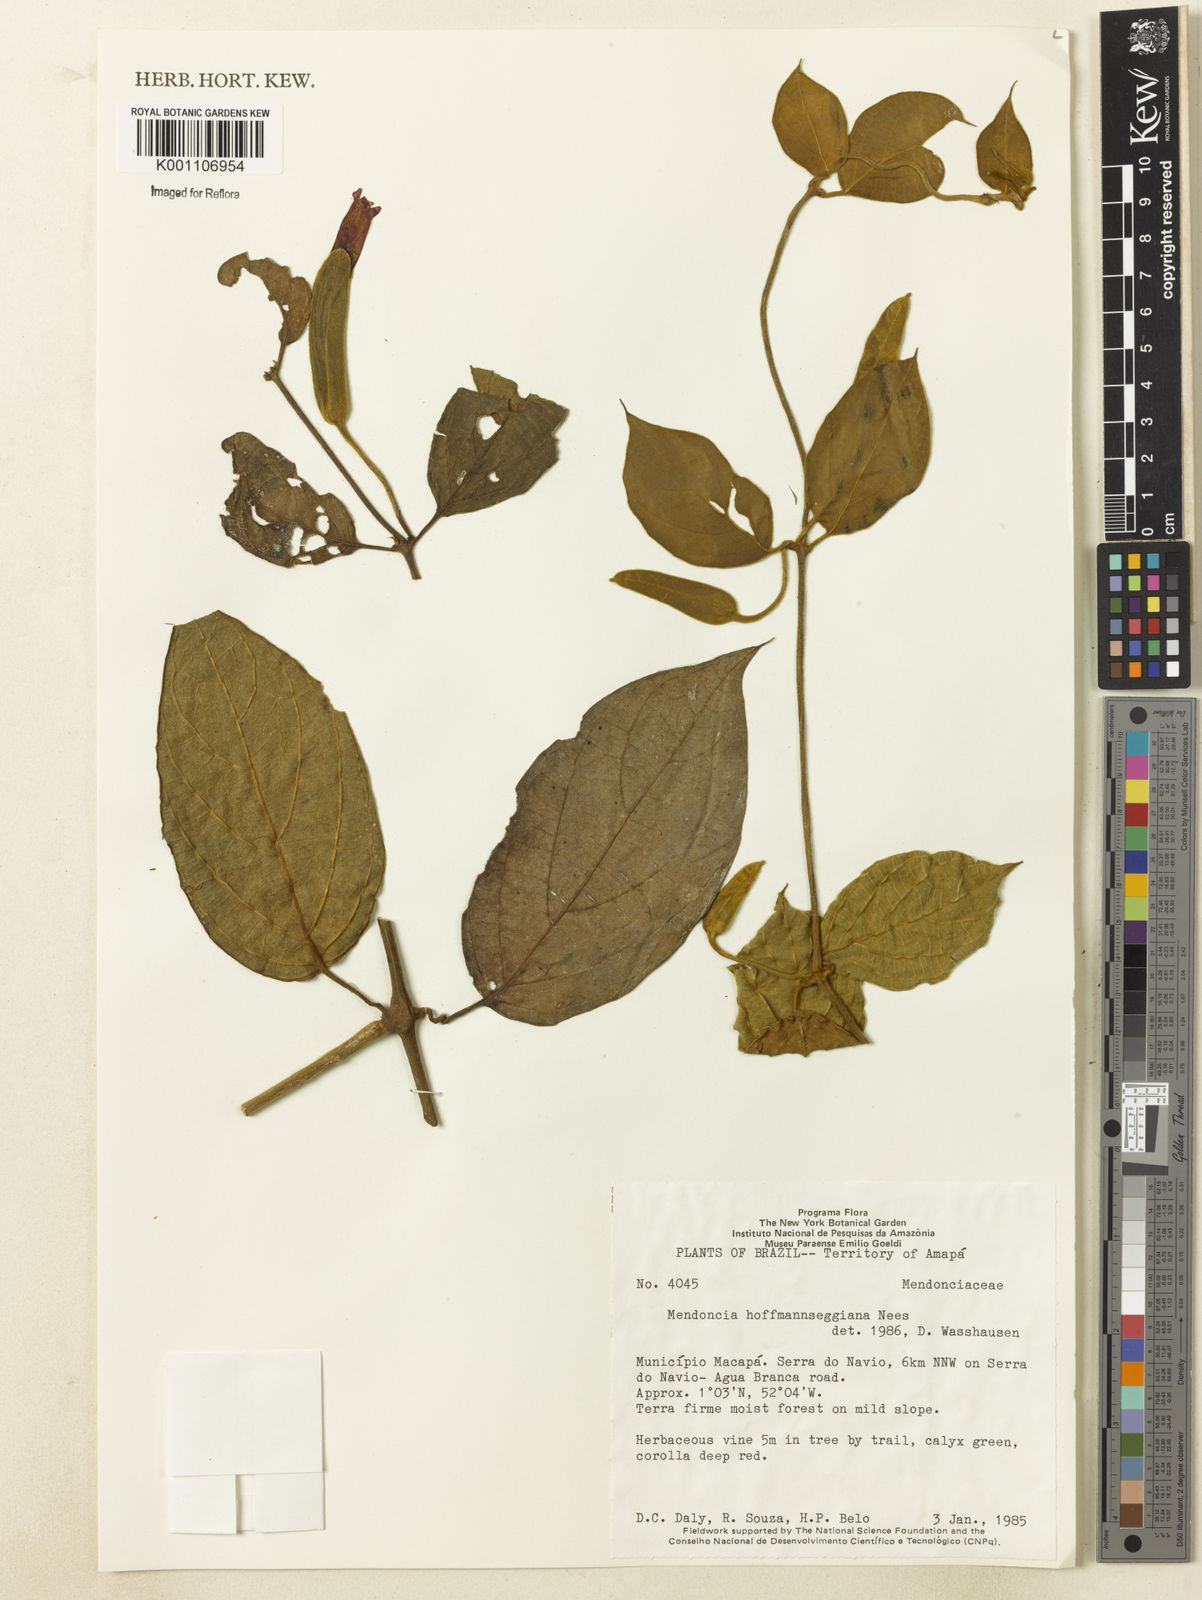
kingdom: Plantae
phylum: Tracheophyta
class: Magnoliopsida
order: Lamiales
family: Acanthaceae
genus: Mendoncia
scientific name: Mendoncia hoffmannseggiana
